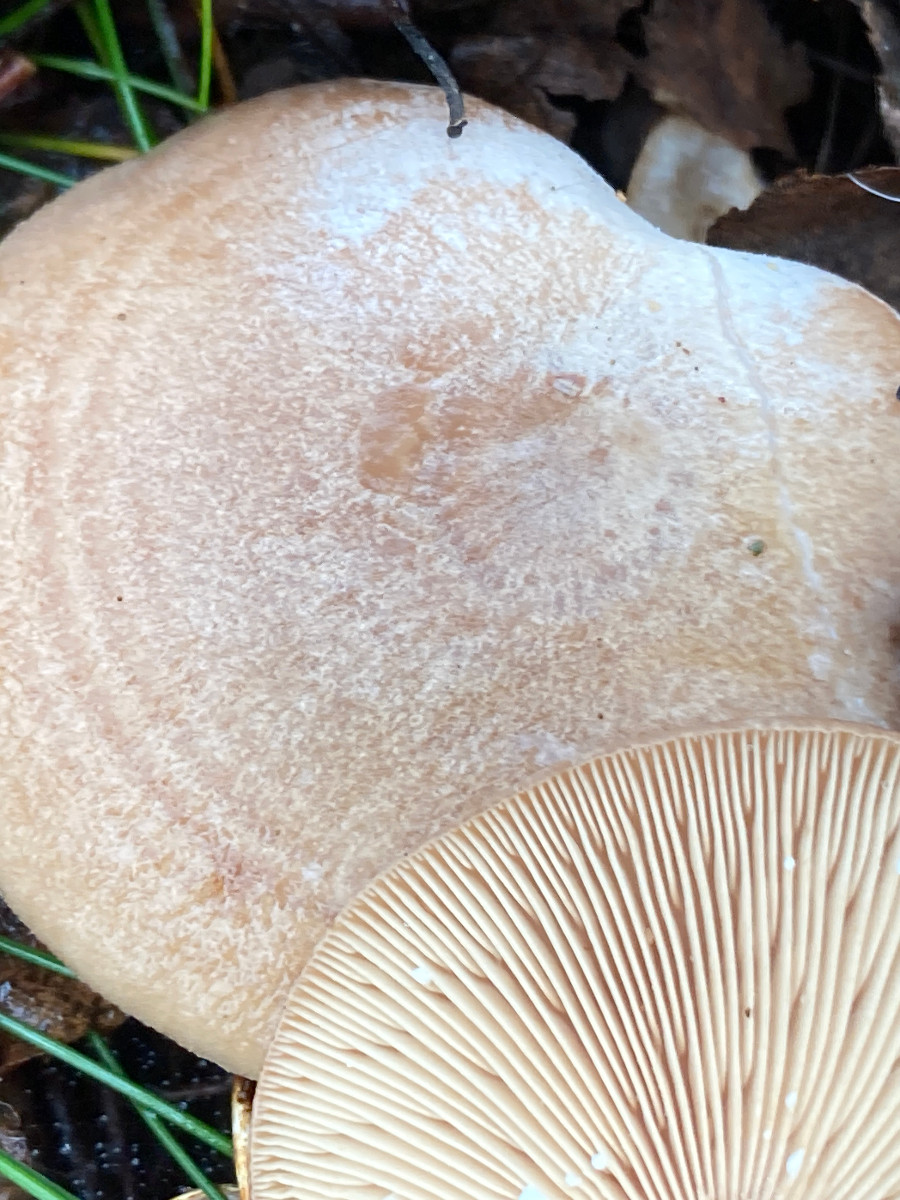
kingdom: Fungi
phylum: Basidiomycota
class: Agaricomycetes
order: Russulales
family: Russulaceae
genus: Lactarius
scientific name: Lactarius glyciosmus
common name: kokos-mælkehat
